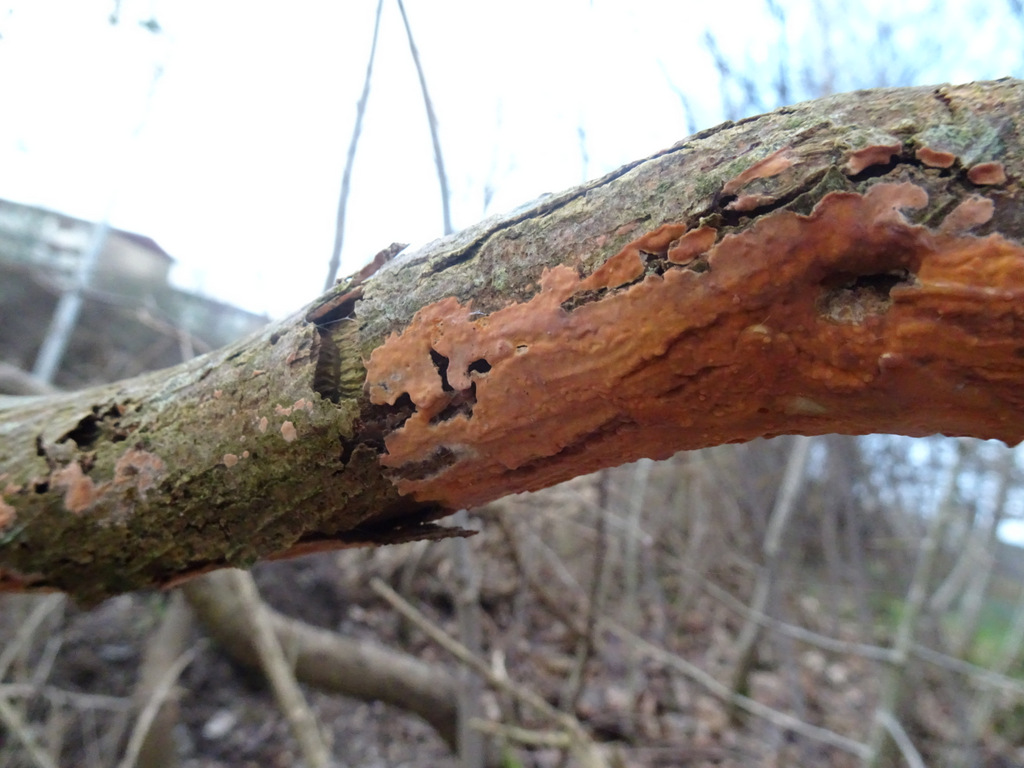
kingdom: Fungi
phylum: Basidiomycota
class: Agaricomycetes
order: Russulales
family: Peniophoraceae
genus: Peniophora
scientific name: Peniophora incarnata
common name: laksefarvet voksskind
